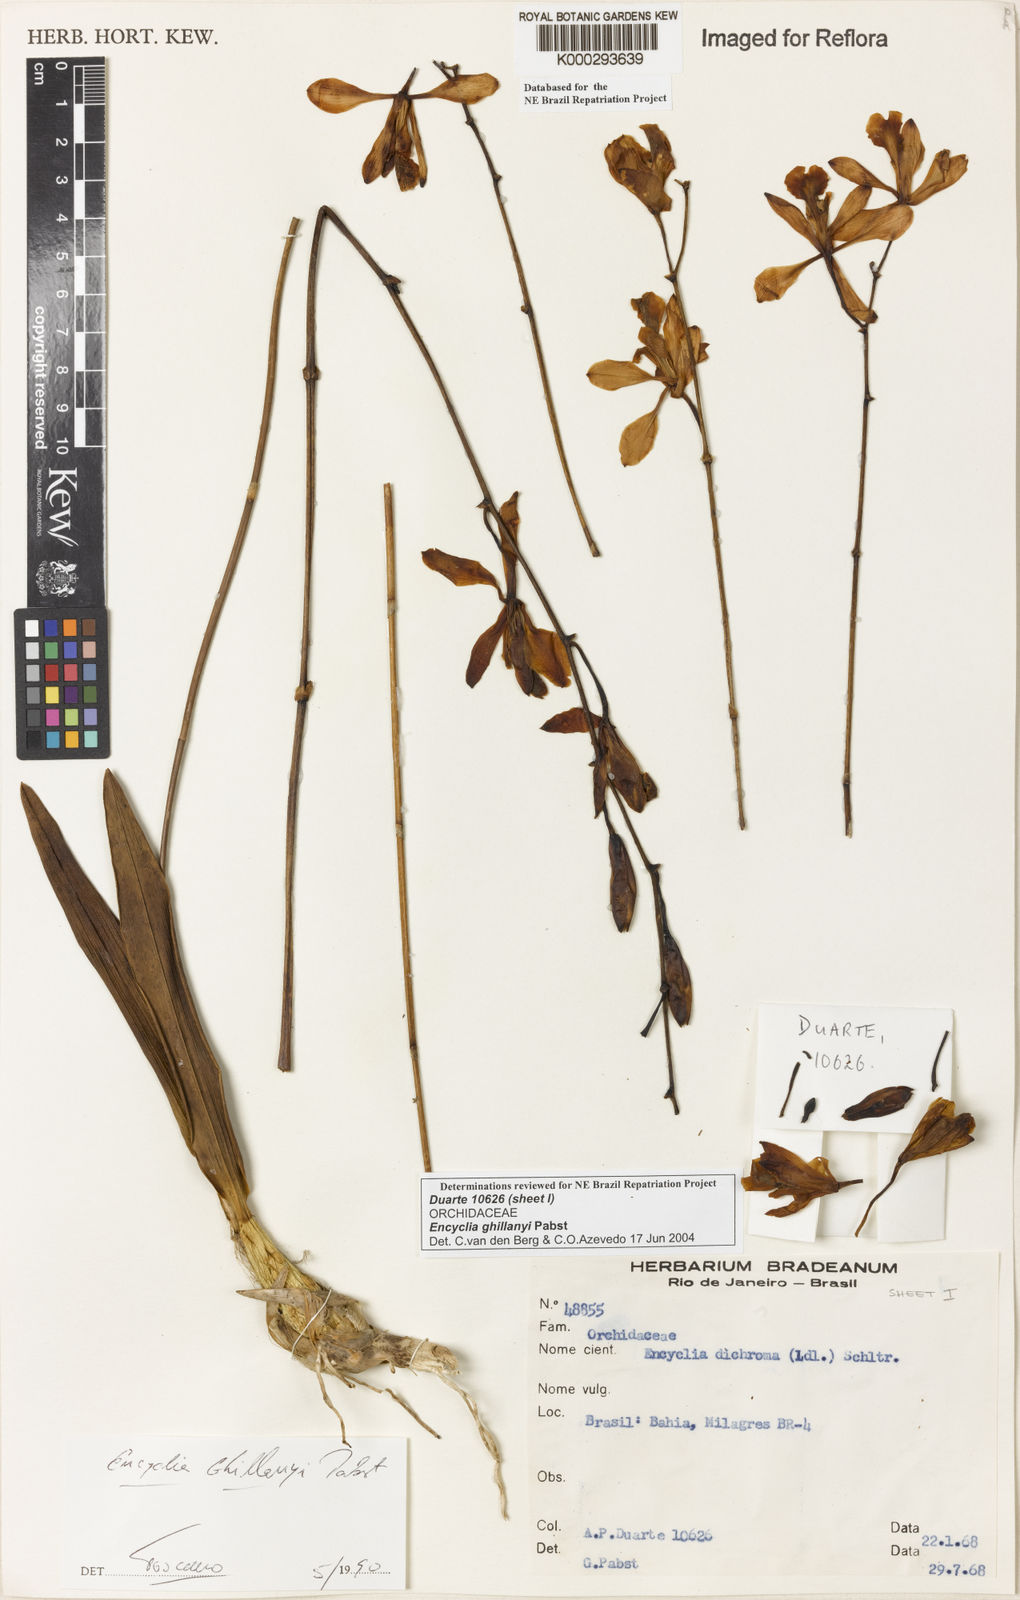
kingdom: Plantae
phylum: Tracheophyta
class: Liliopsida
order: Asparagales
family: Orchidaceae
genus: Encyclia
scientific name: Encyclia jenischiana
